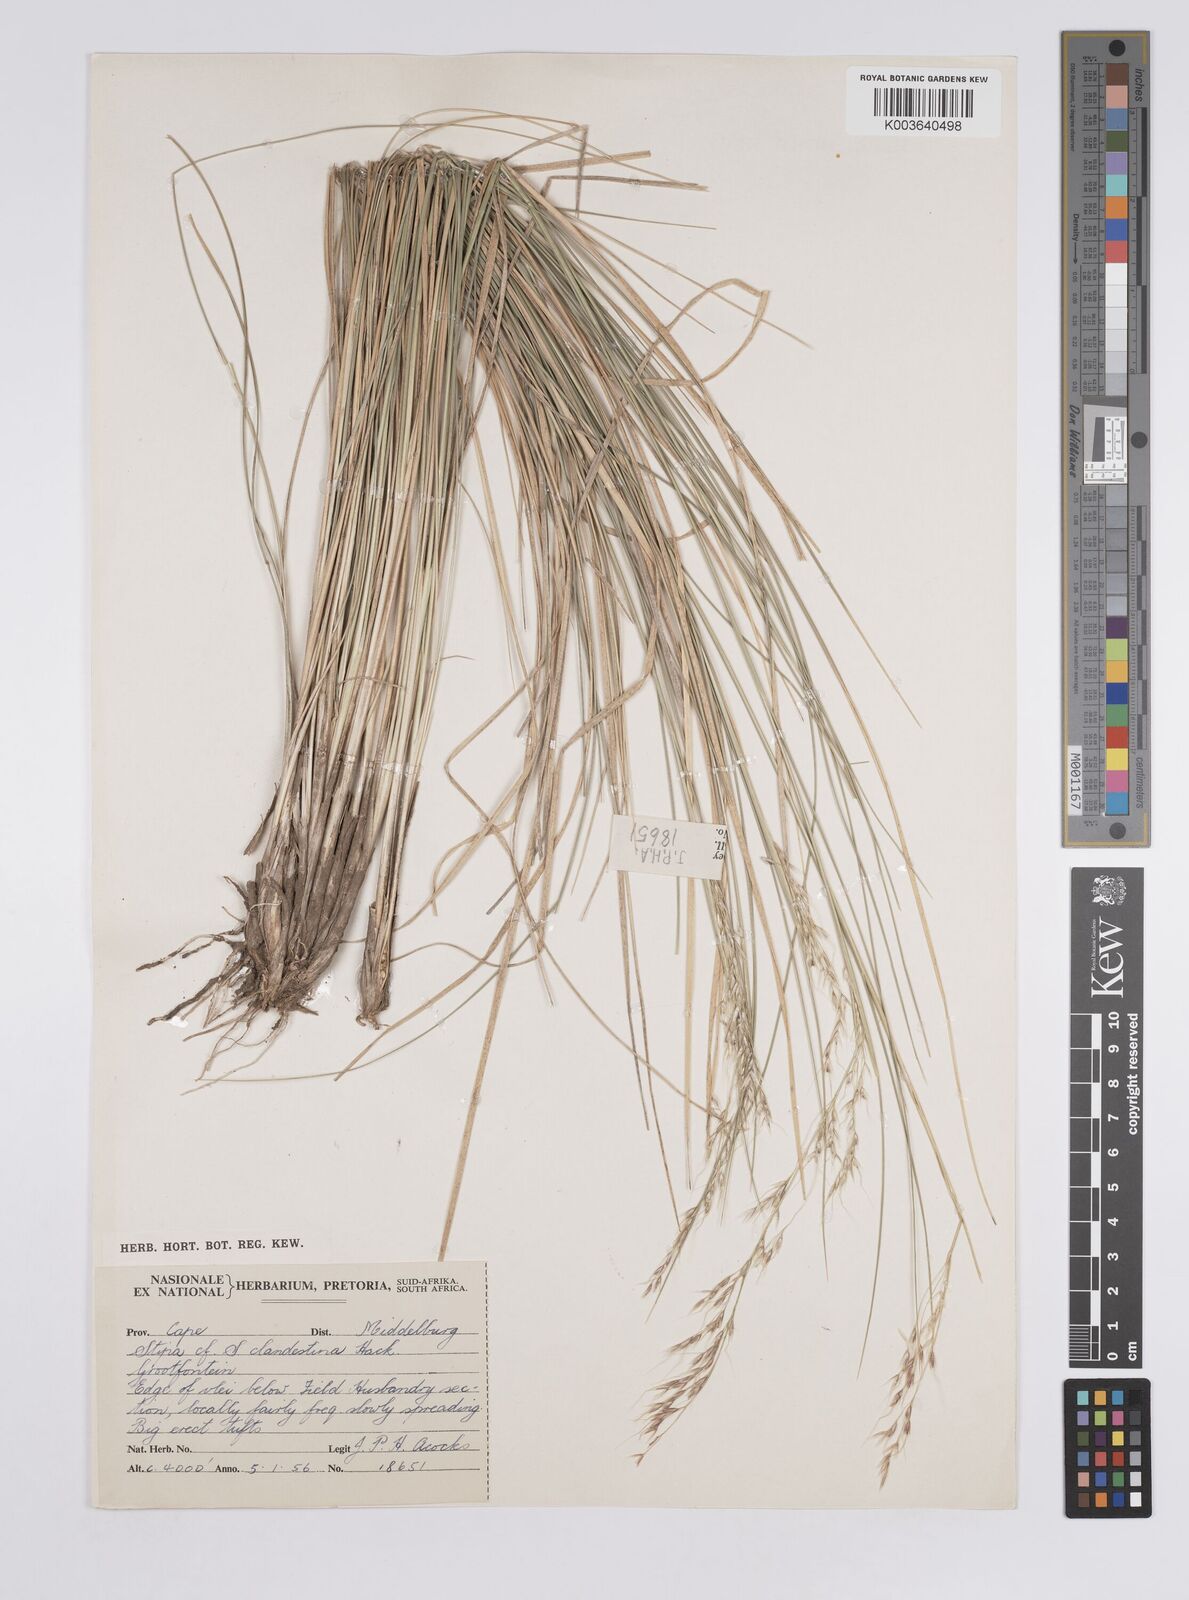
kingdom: Plantae
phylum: Tracheophyta
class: Liliopsida
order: Poales
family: Poaceae
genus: Aristida
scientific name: Aristida
